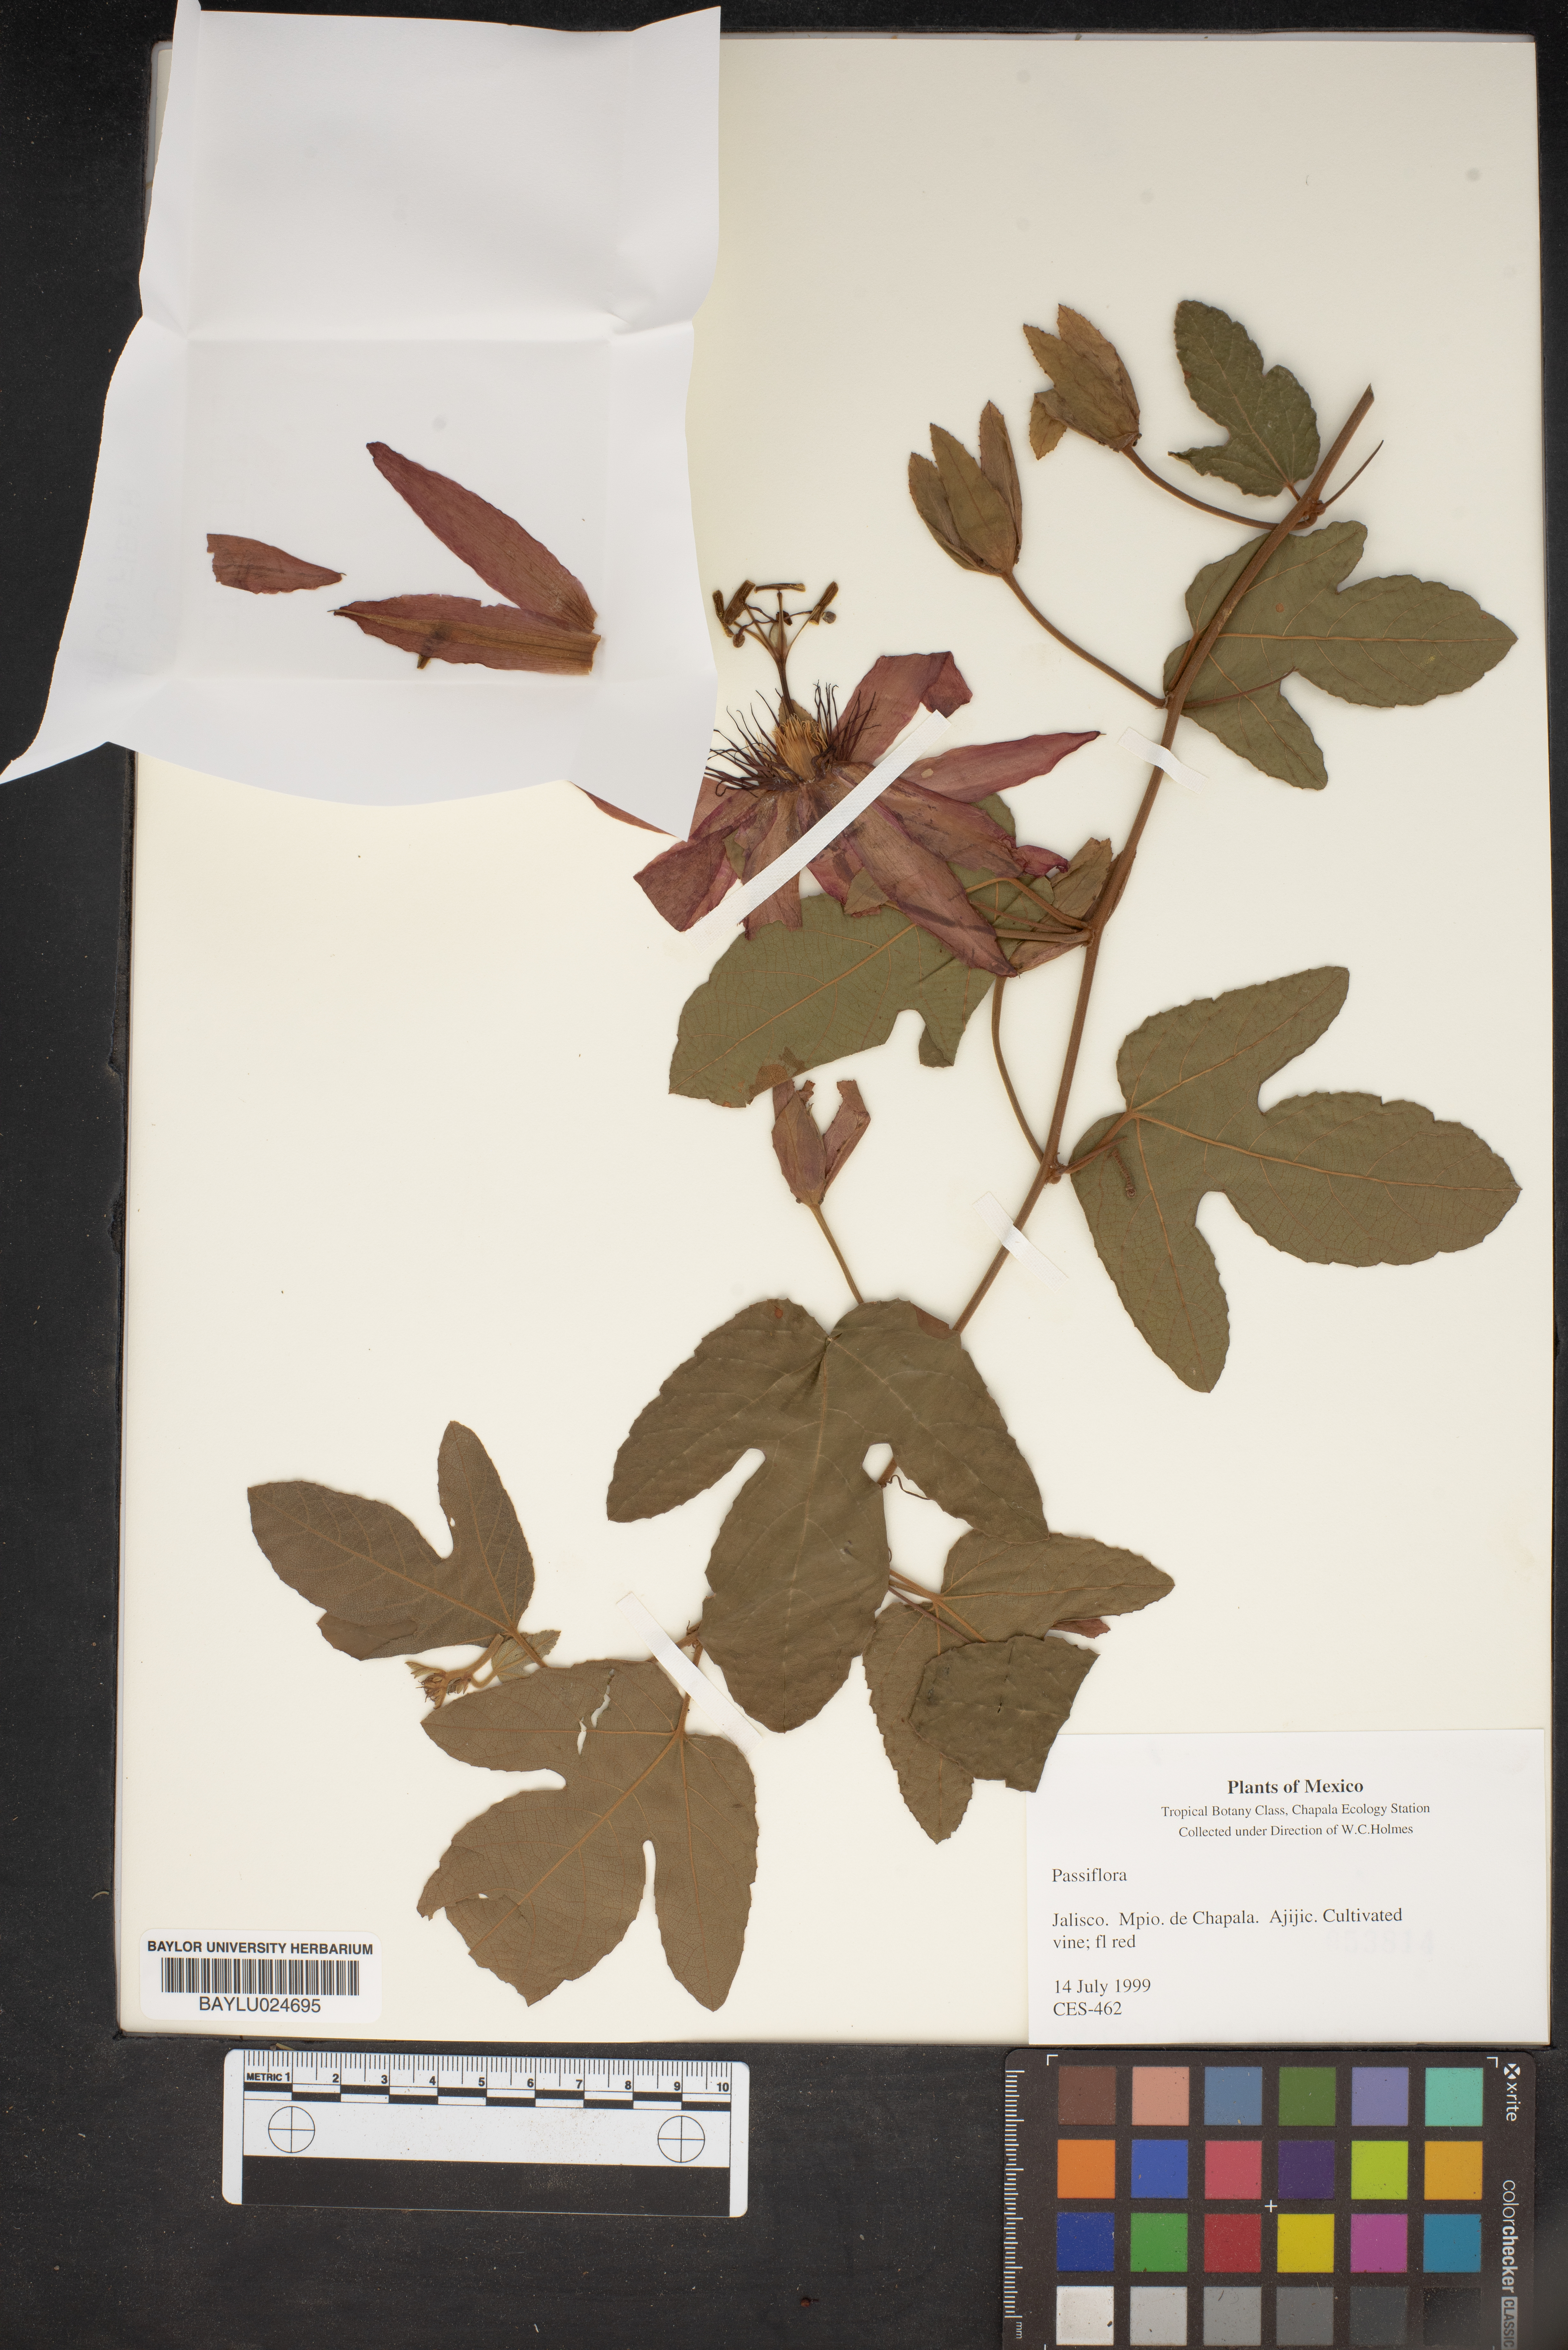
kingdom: Plantae
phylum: Tracheophyta
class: Magnoliopsida
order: Malpighiales
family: Passifloraceae
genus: Passiflora
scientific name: Passiflora
